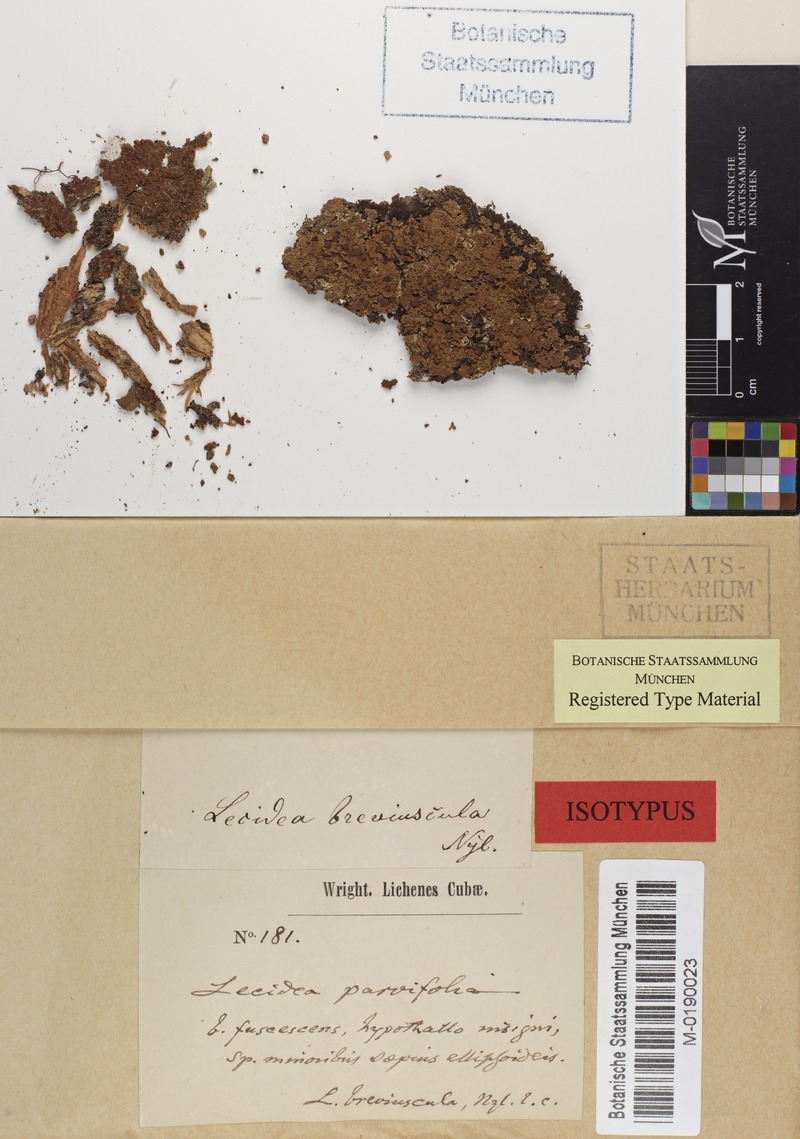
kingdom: Fungi
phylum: Ascomycota
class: Lecanoromycetes
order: Lecanorales
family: Ramalinaceae
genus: Phyllopsora
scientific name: Phyllopsora breviuscula
